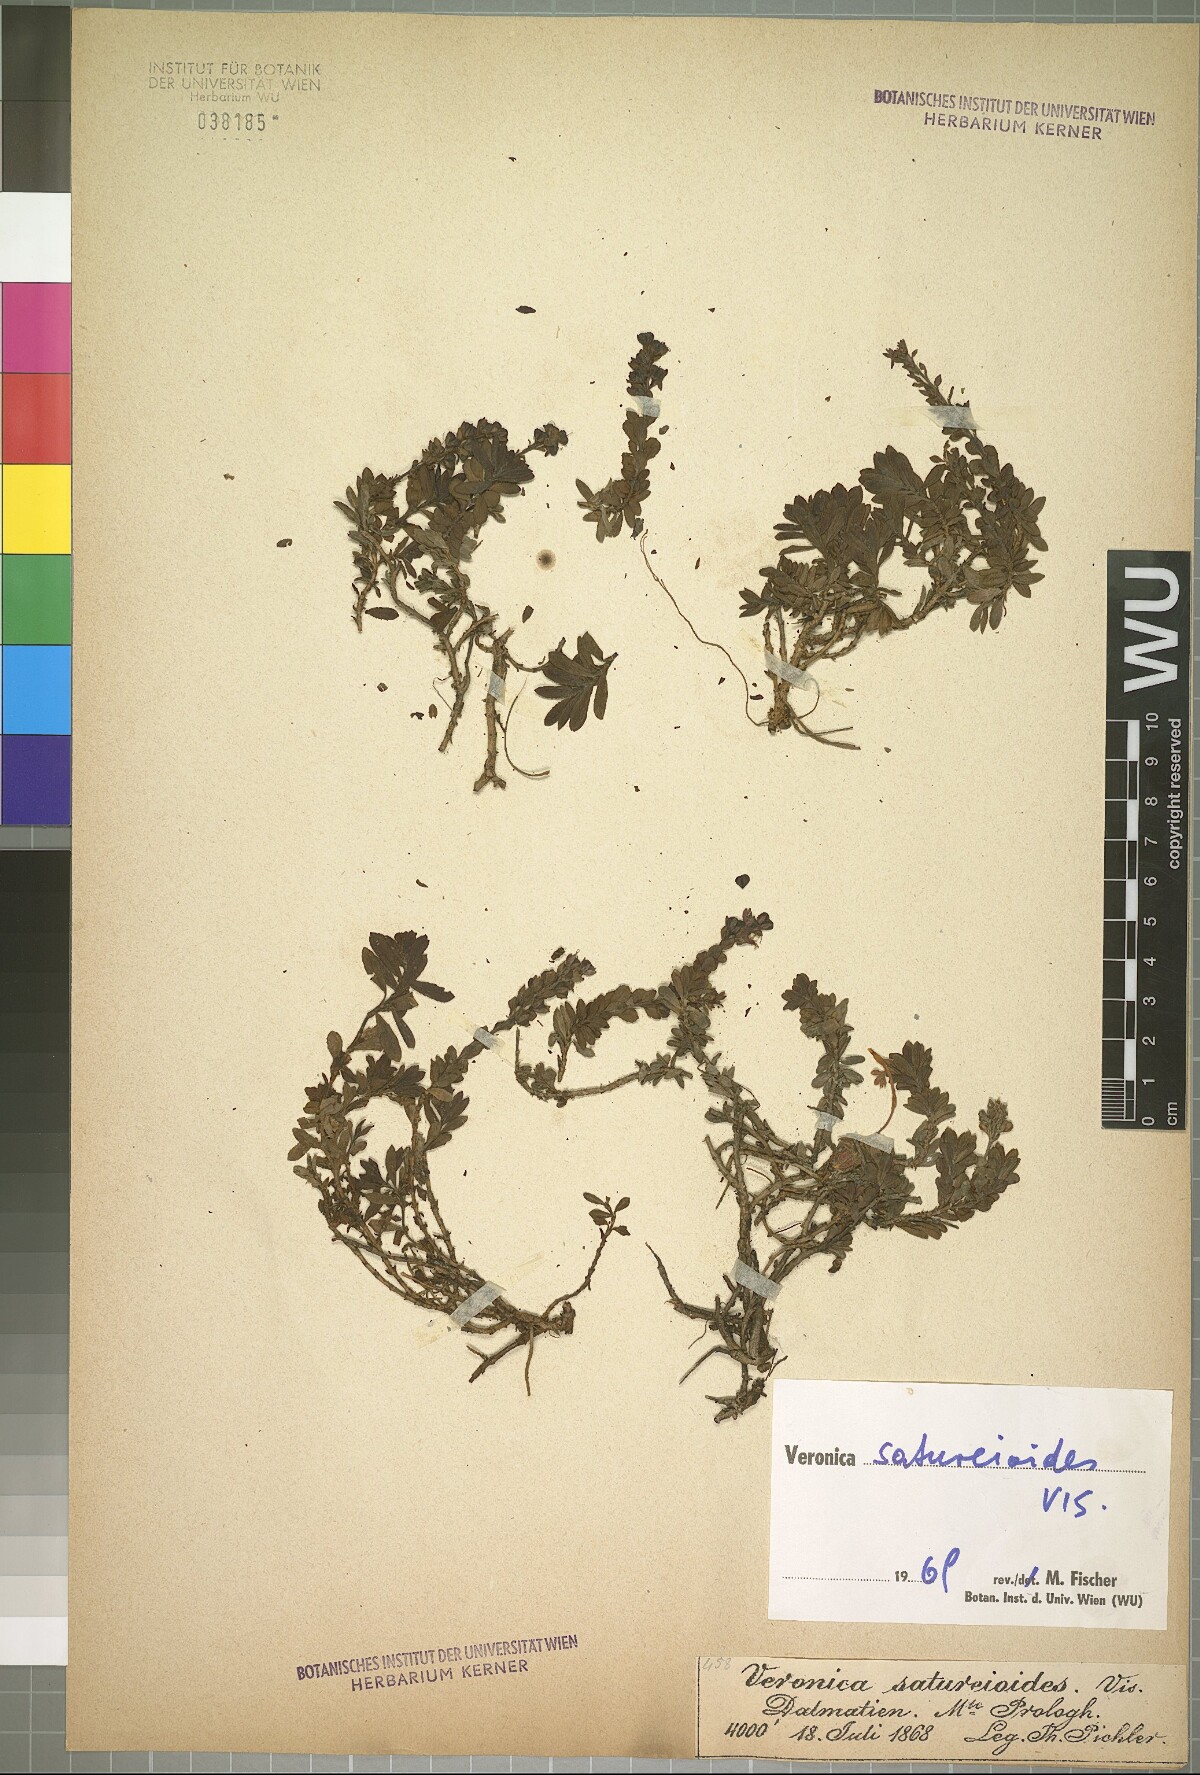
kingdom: Plantae
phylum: Tracheophyta
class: Magnoliopsida
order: Lamiales
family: Plantaginaceae
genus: Veronica
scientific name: Veronica saturejoides
